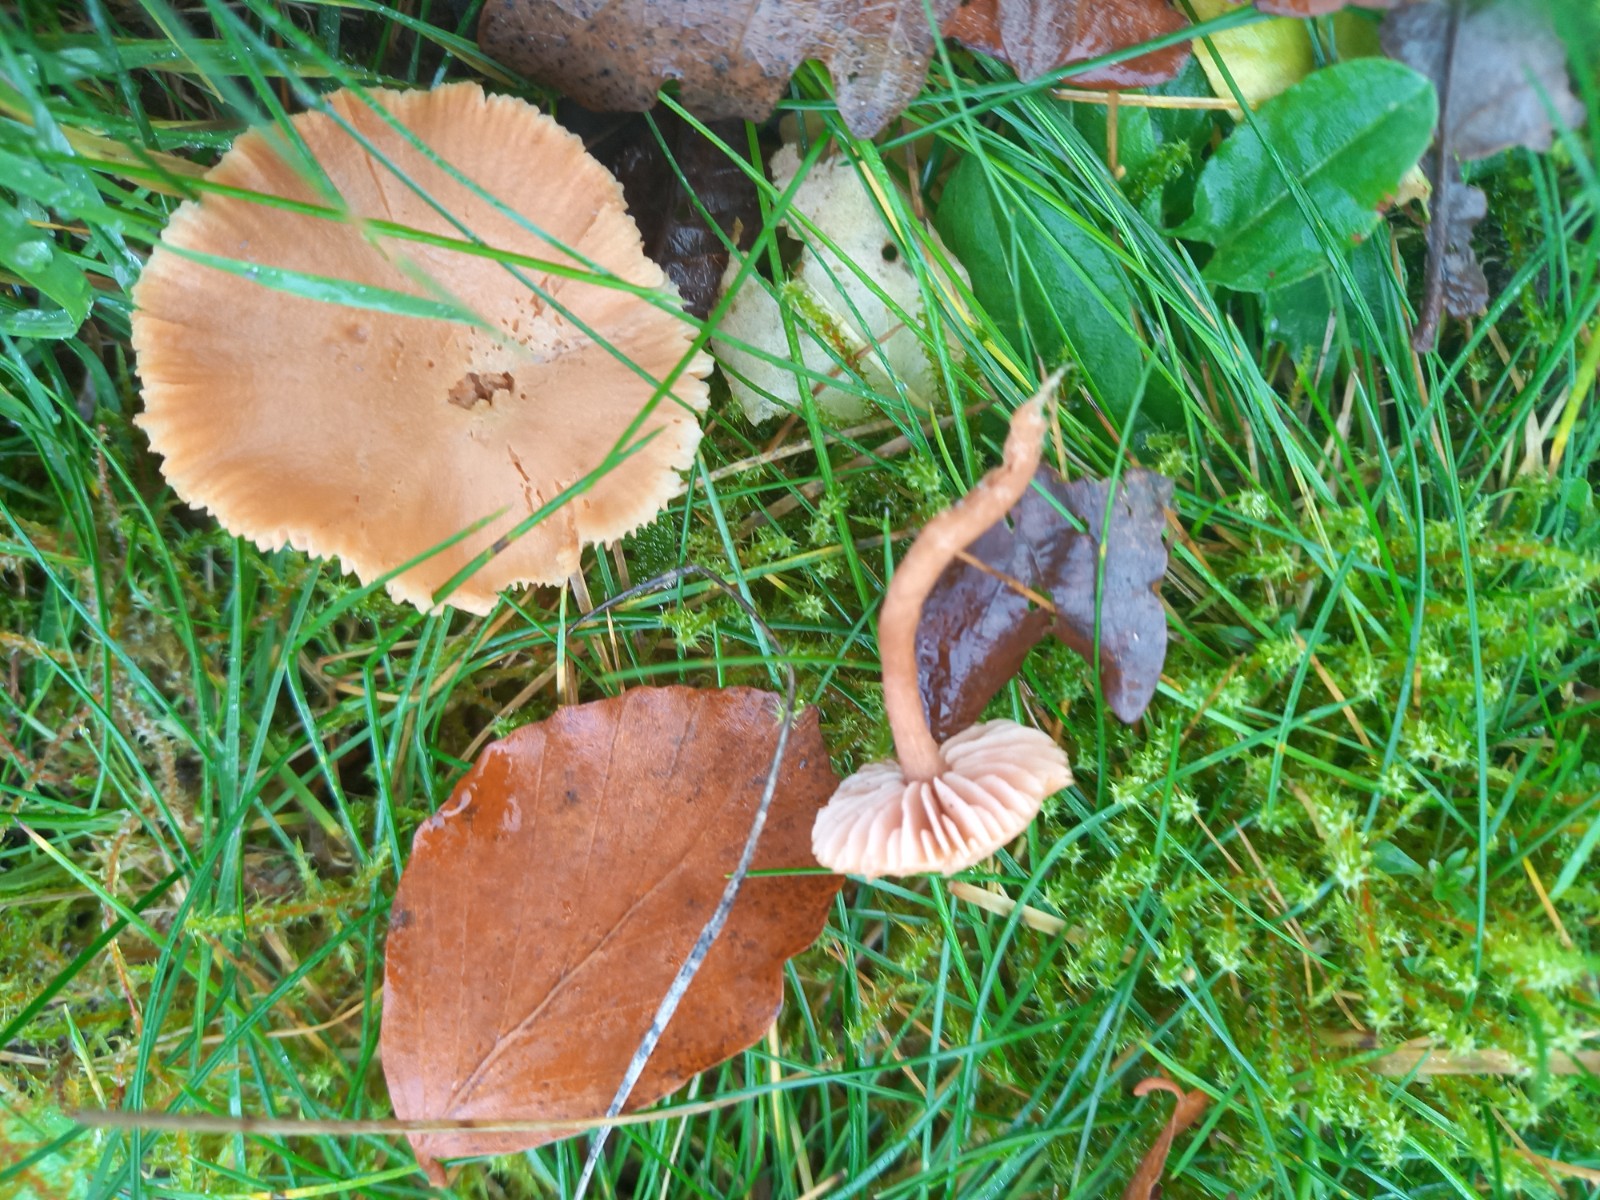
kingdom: Fungi
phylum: Basidiomycota
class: Agaricomycetes
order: Agaricales
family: Hydnangiaceae
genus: Laccaria
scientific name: Laccaria laccata
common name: rød ametysthat
